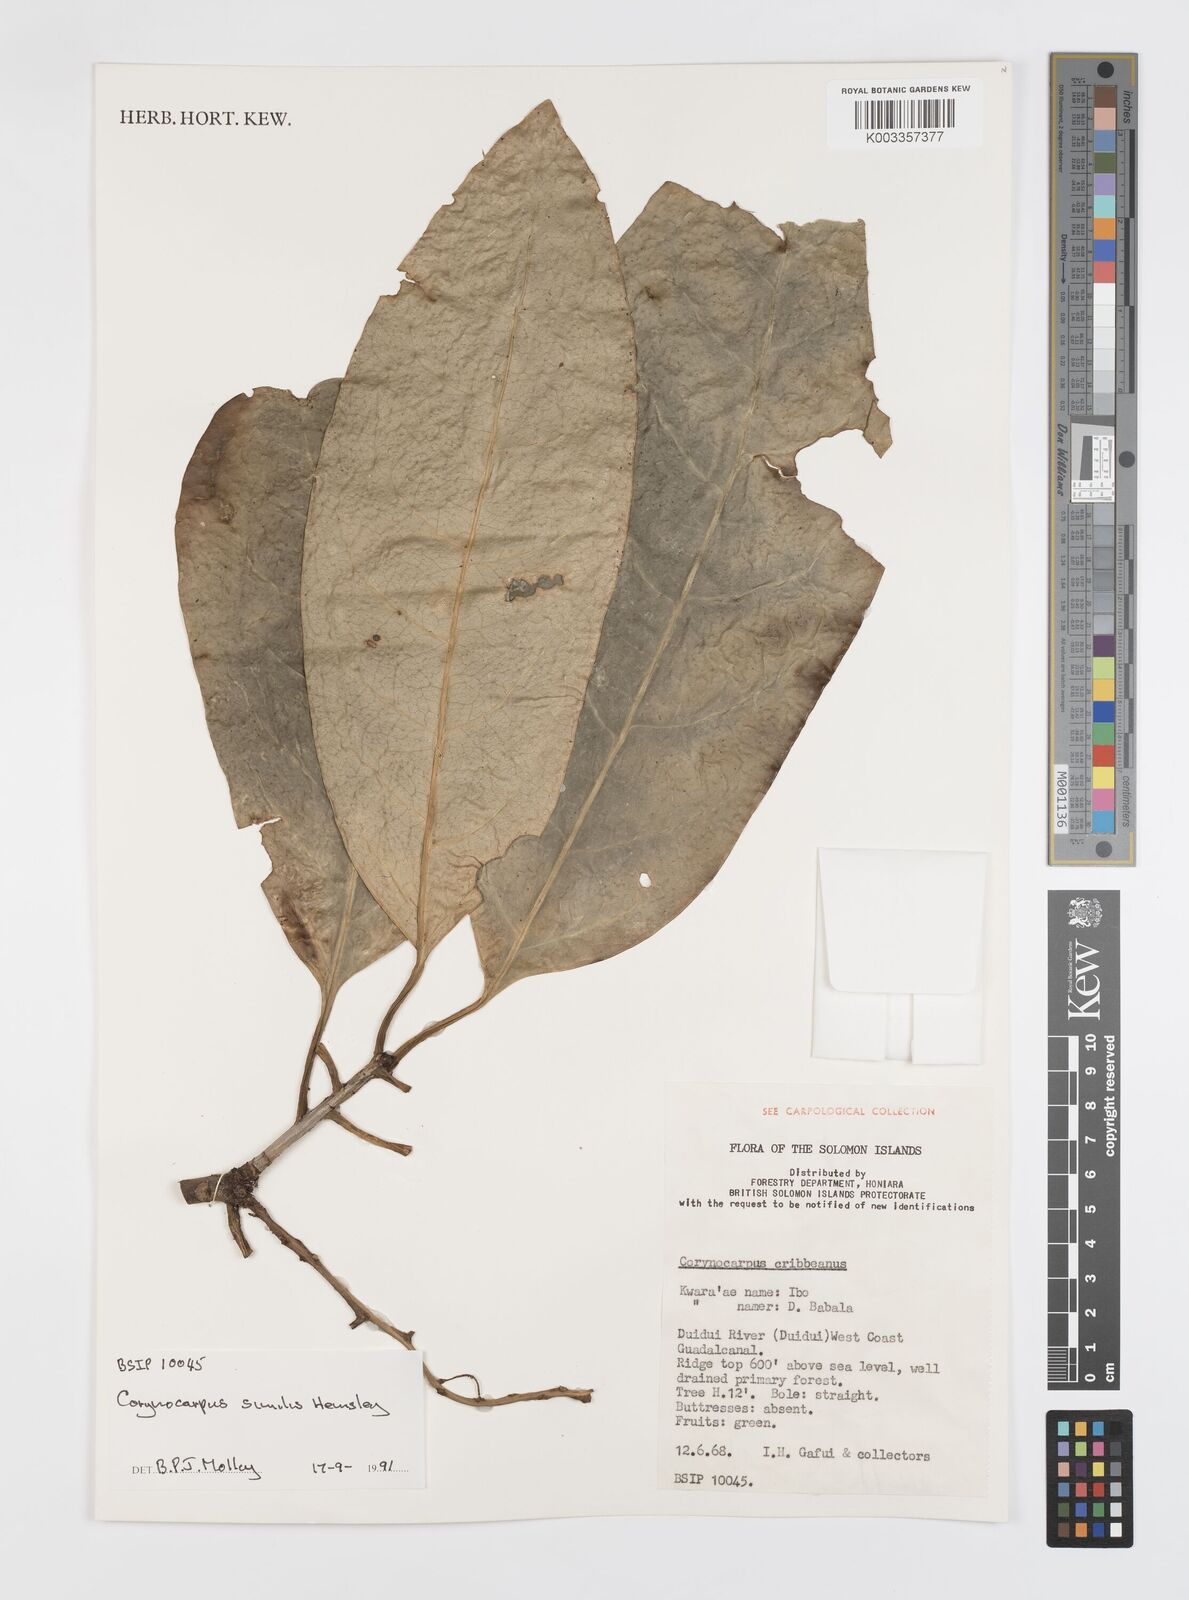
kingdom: Plantae
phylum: Tracheophyta
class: Magnoliopsida
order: Cucurbitales
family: Corynocarpaceae
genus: Corynocarpus
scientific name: Corynocarpus similis
